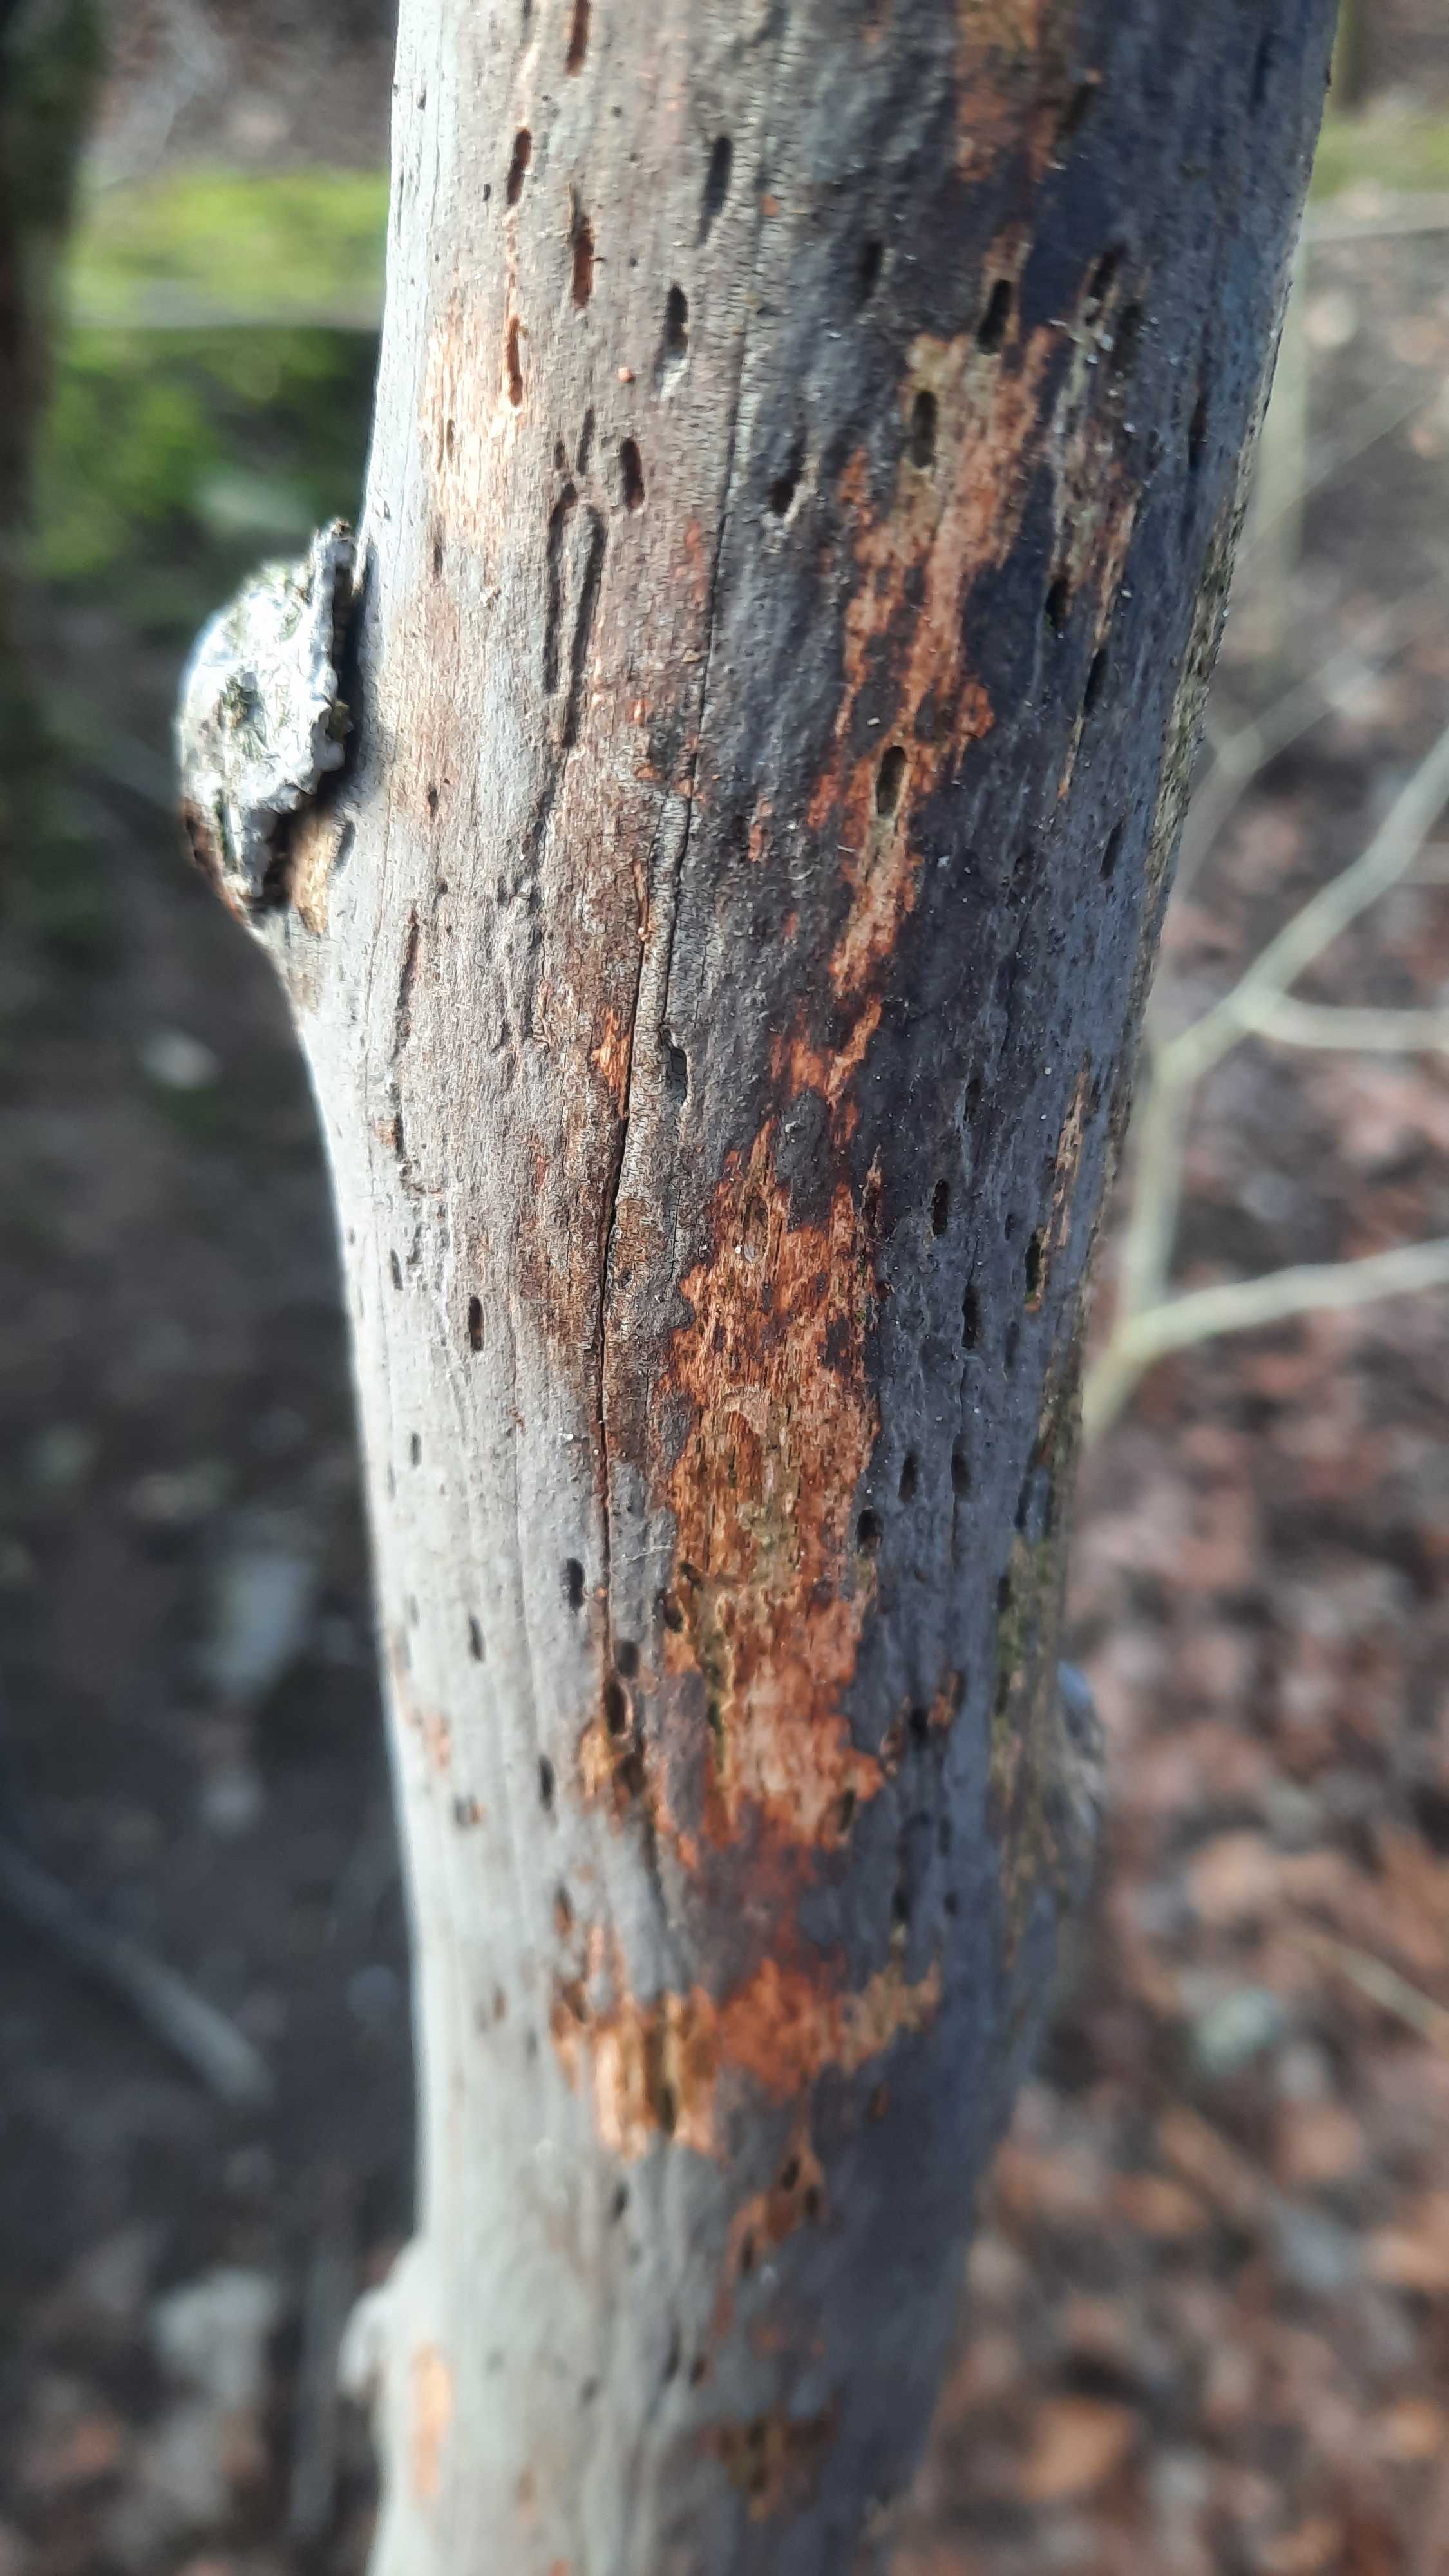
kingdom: Fungi
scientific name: Fungi
